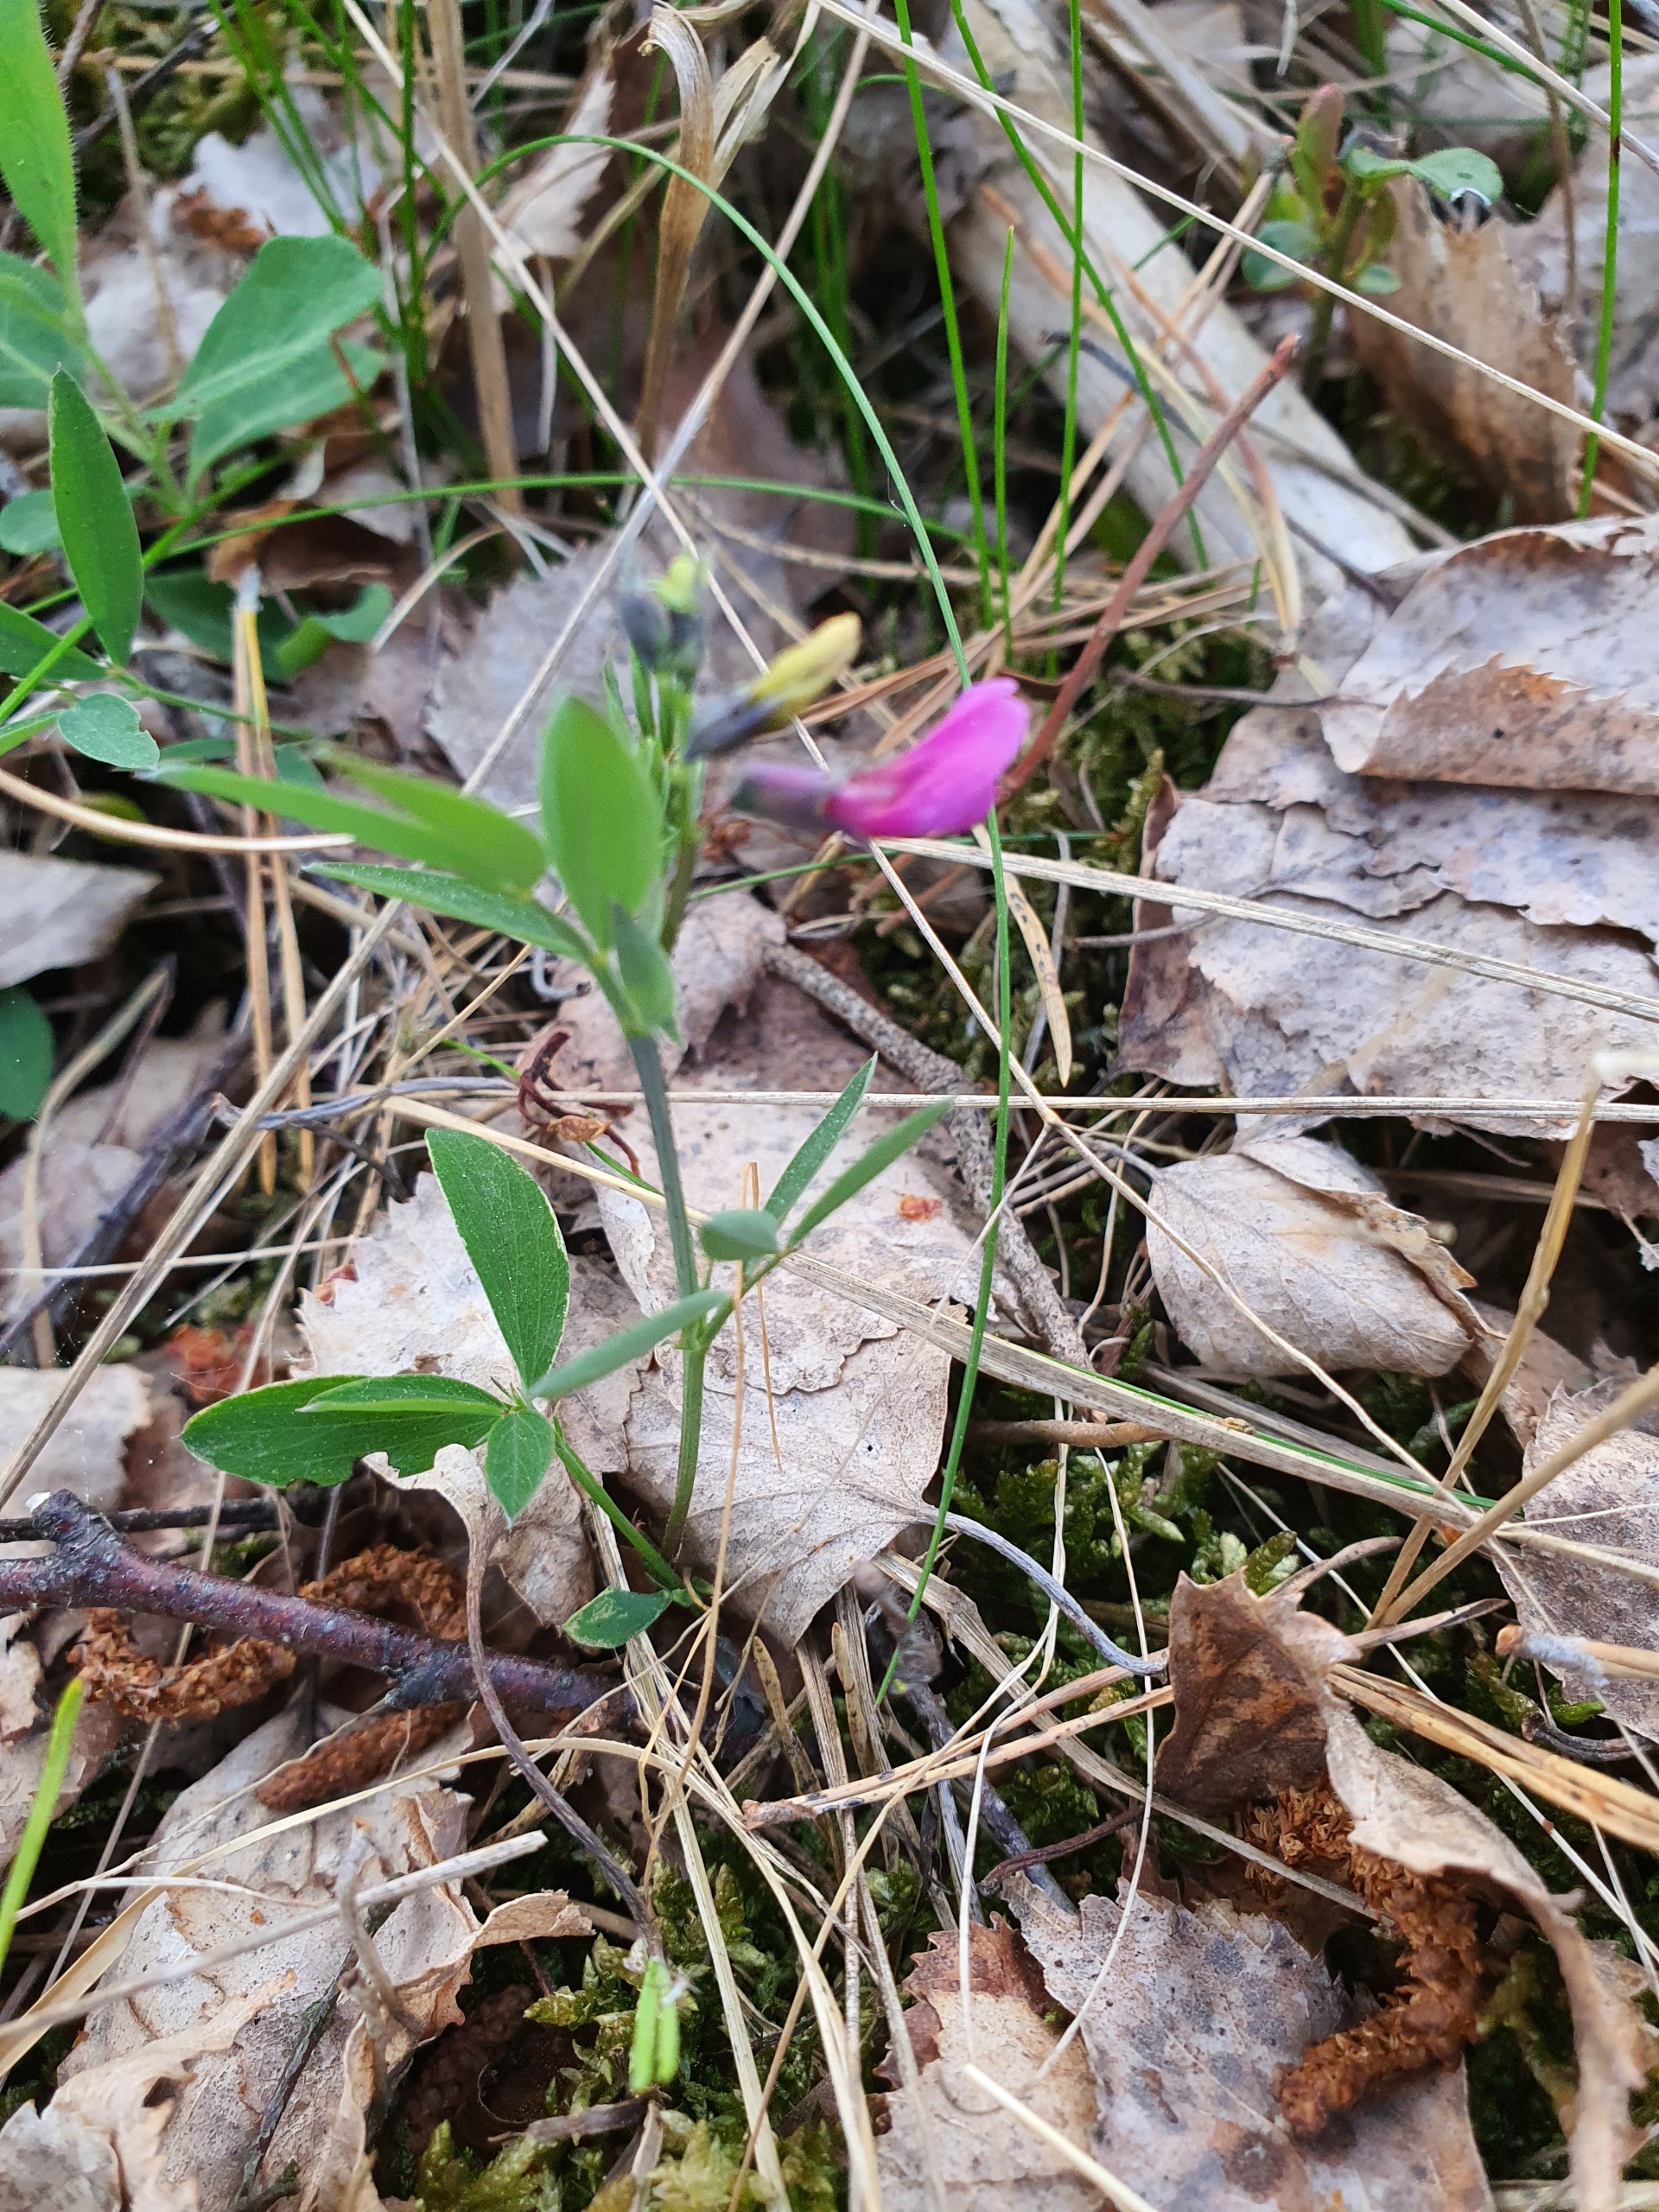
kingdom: Plantae
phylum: Tracheophyta
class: Magnoliopsida
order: Fabales
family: Fabaceae
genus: Lathyrus
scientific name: Lathyrus linifolius
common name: Krat-fladbælg
